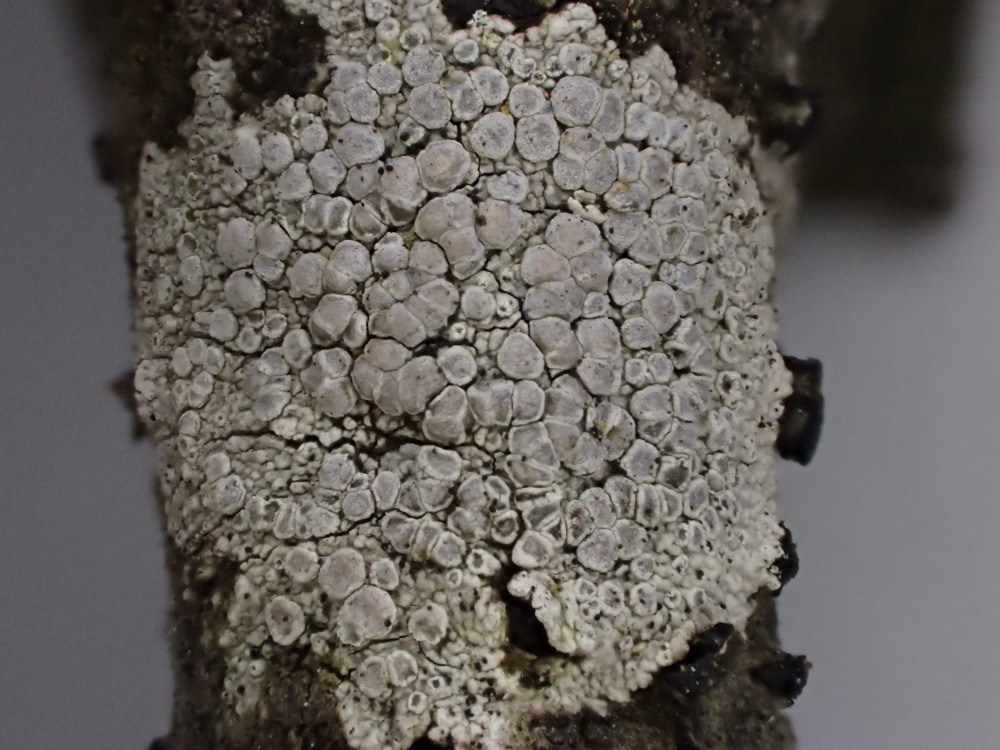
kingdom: Fungi
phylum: Ascomycota
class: Lecanoromycetes
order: Lecanorales
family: Lecanoraceae
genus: Glaucomaria
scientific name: Glaucomaria carpinea
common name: hviddugget kantskivelav
